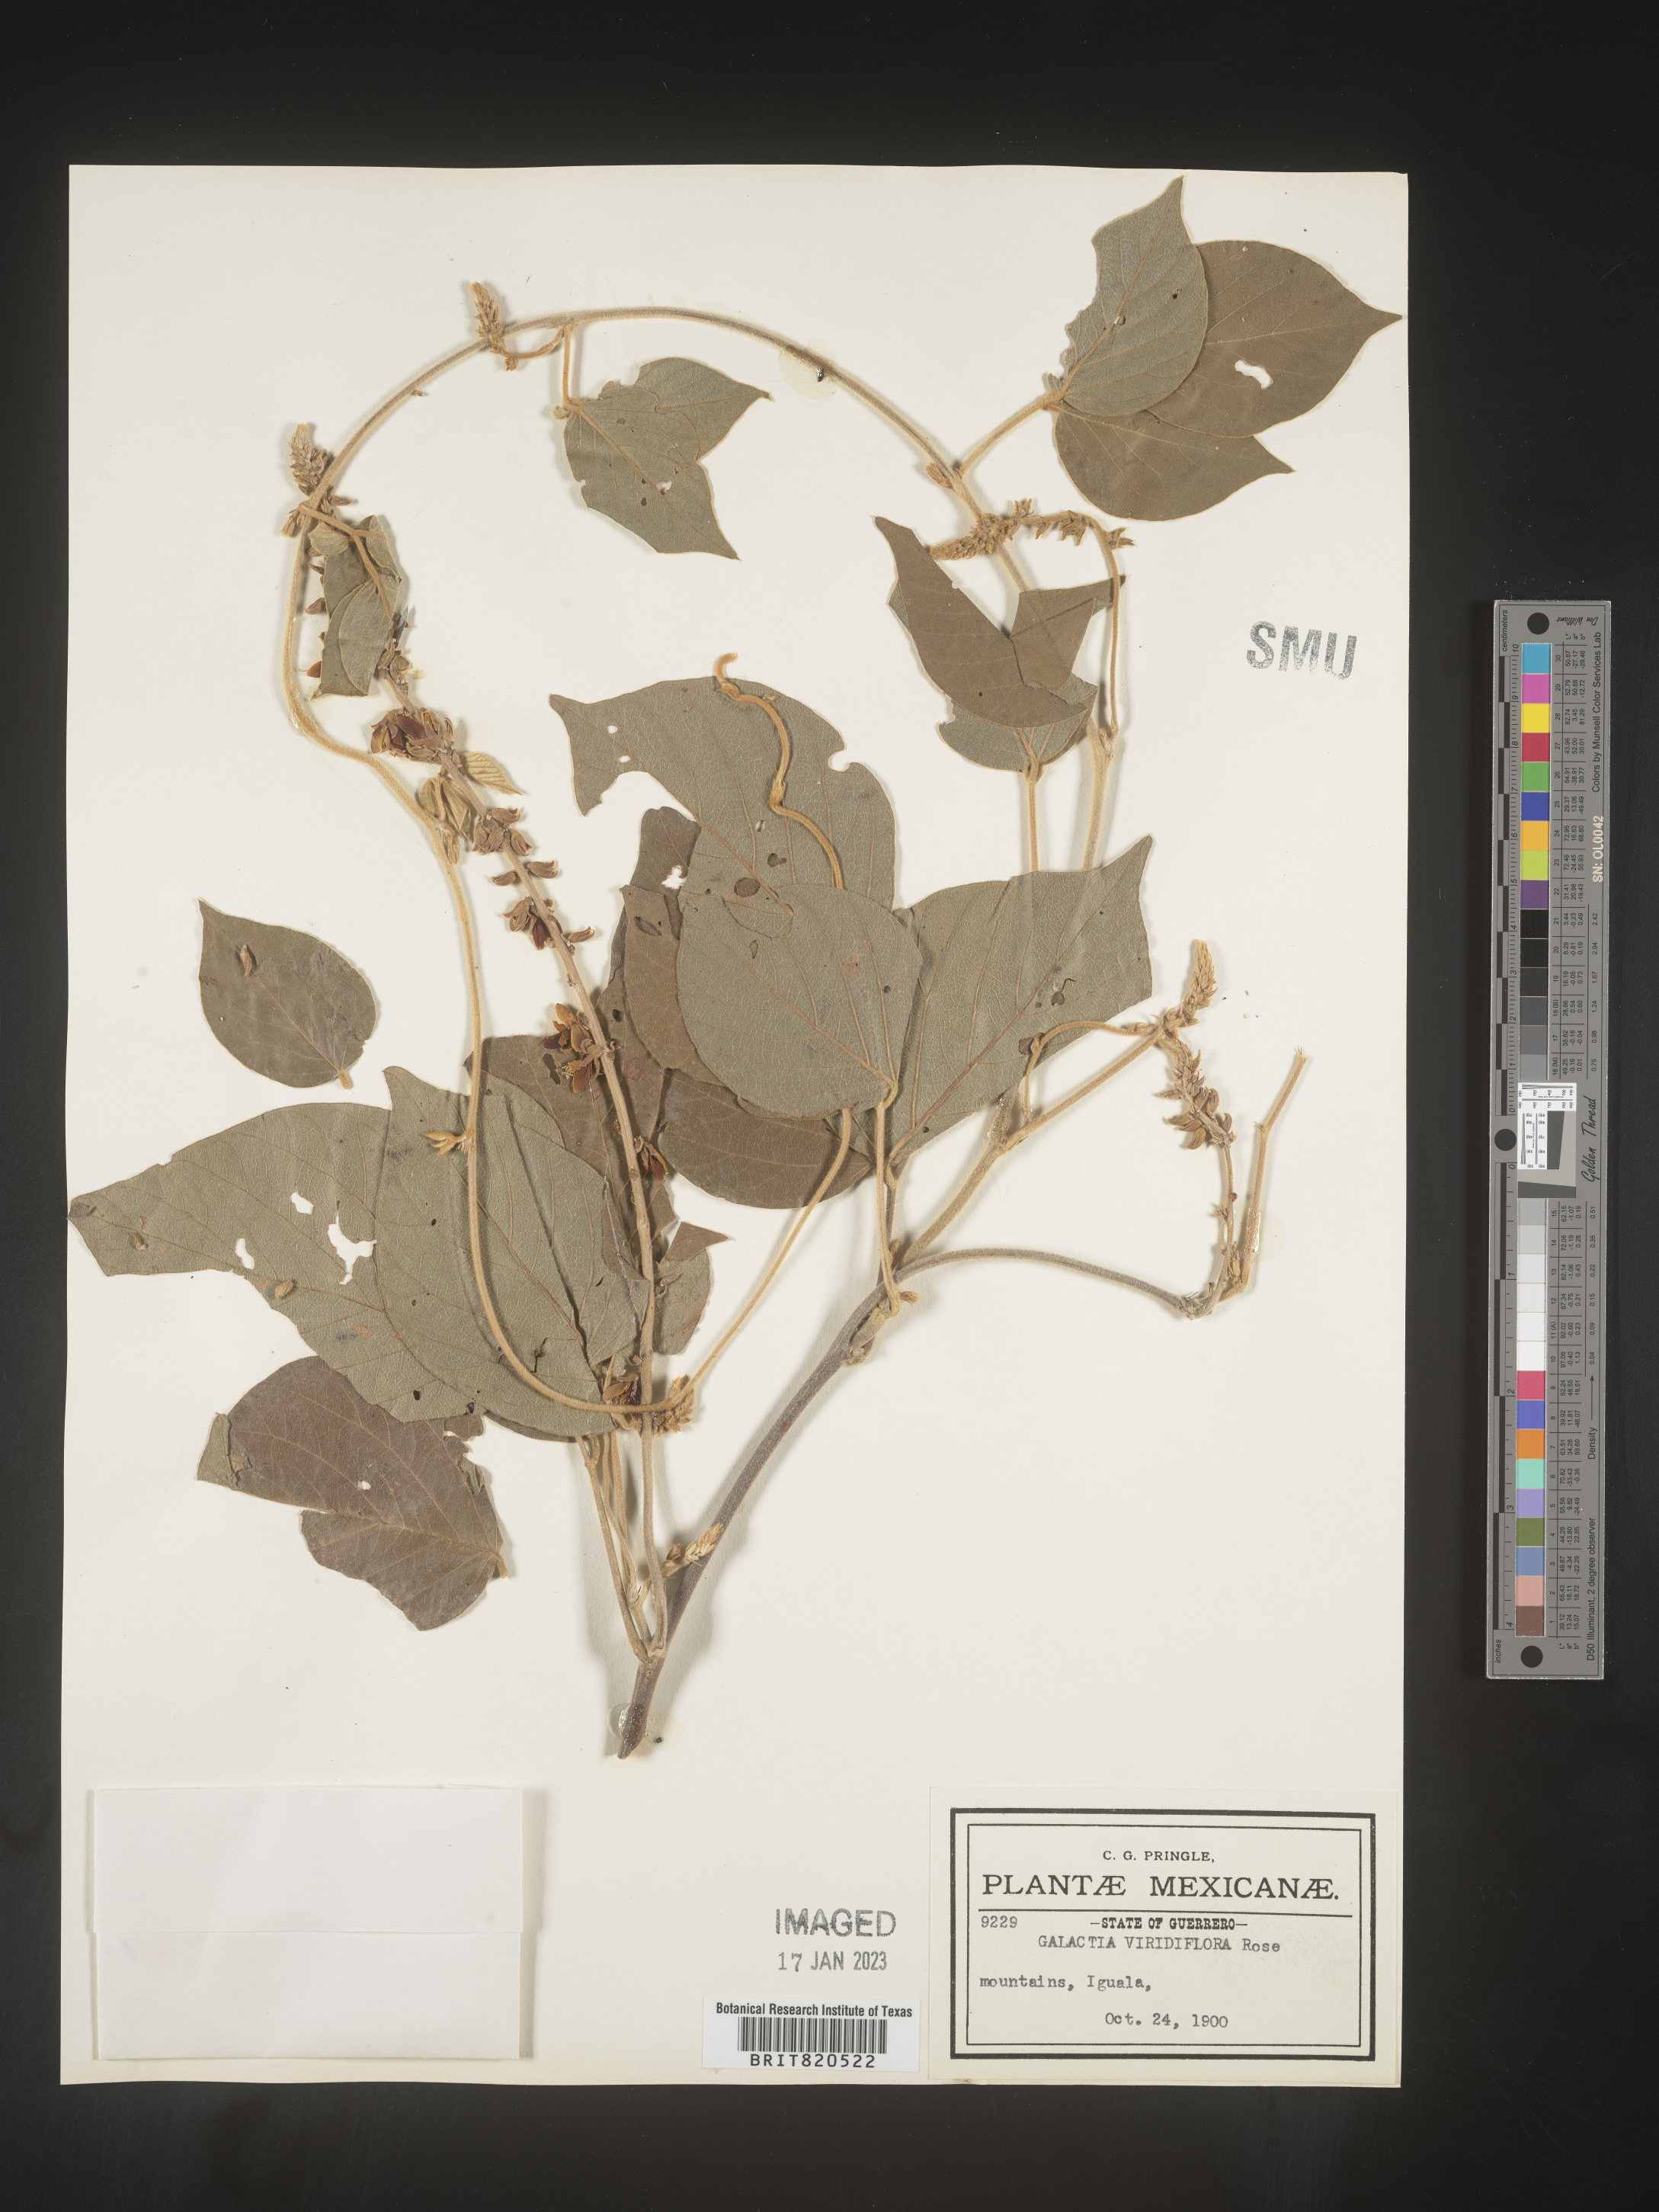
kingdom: Plantae
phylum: Tracheophyta
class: Magnoliopsida
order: Fabales
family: Fabaceae
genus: Lackeya
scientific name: Lackeya viridiflora
